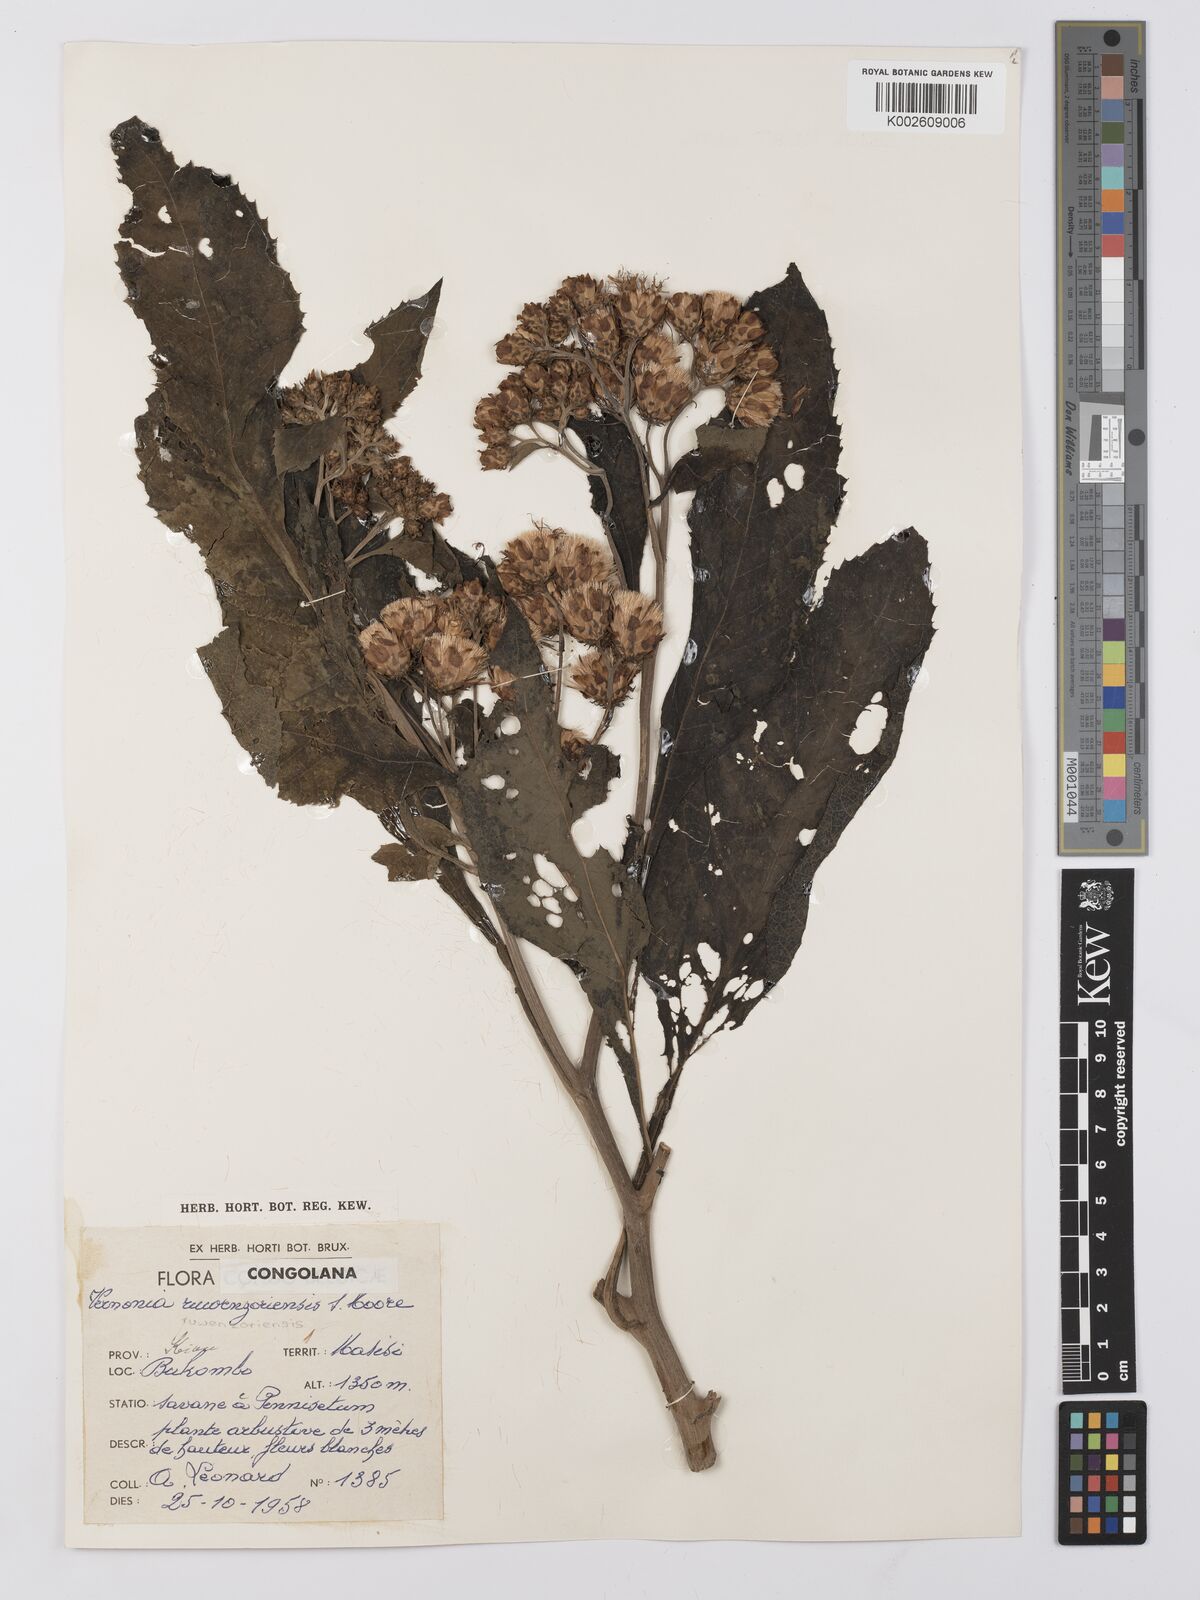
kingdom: Plantae
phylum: Tracheophyta
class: Magnoliopsida
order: Asterales
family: Asteraceae
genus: Vernonia
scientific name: Vernonia ruwenzoriensis
